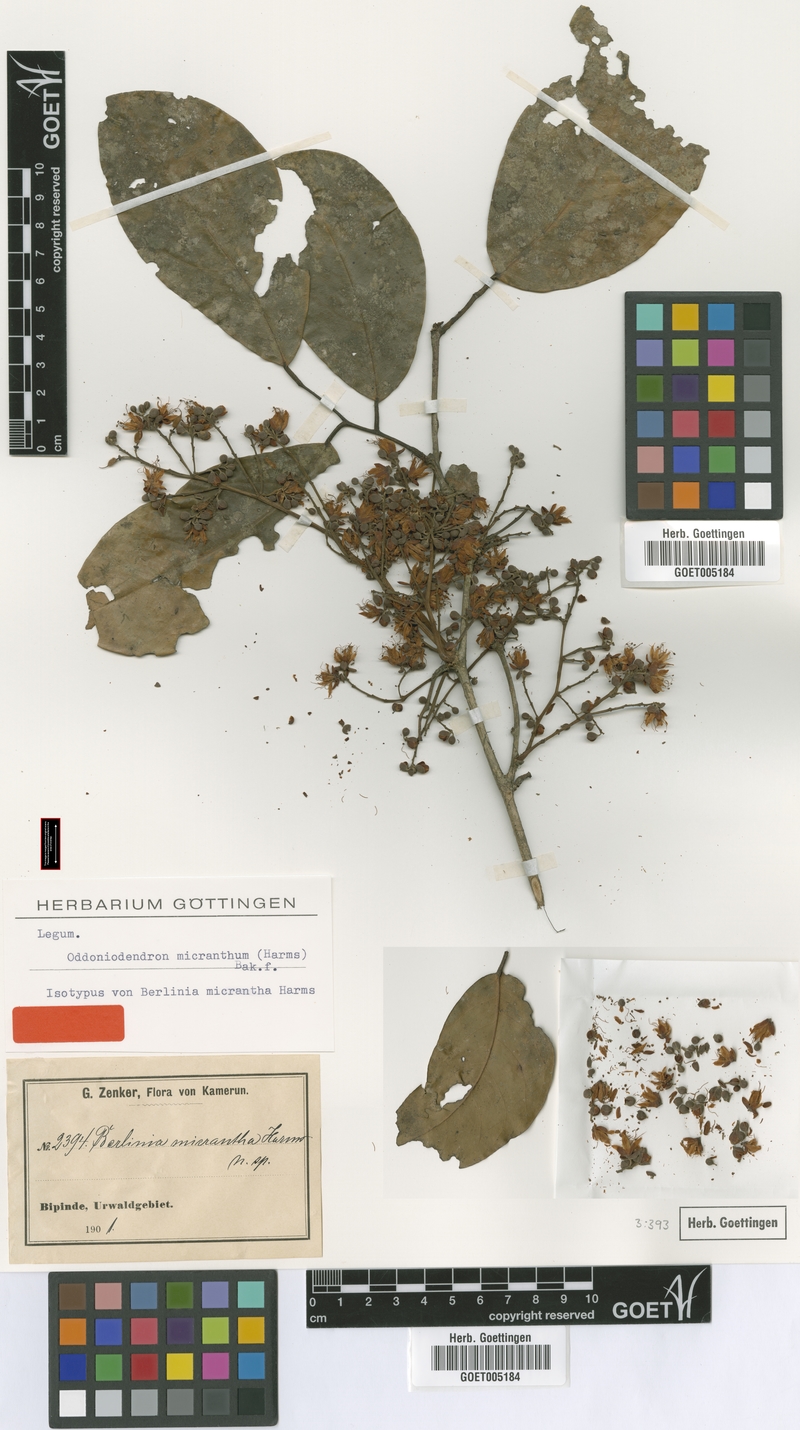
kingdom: Plantae
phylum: Tracheophyta
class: Magnoliopsida
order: Fabales
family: Fabaceae
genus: Oddoniodendron
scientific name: Oddoniodendron micranthum
